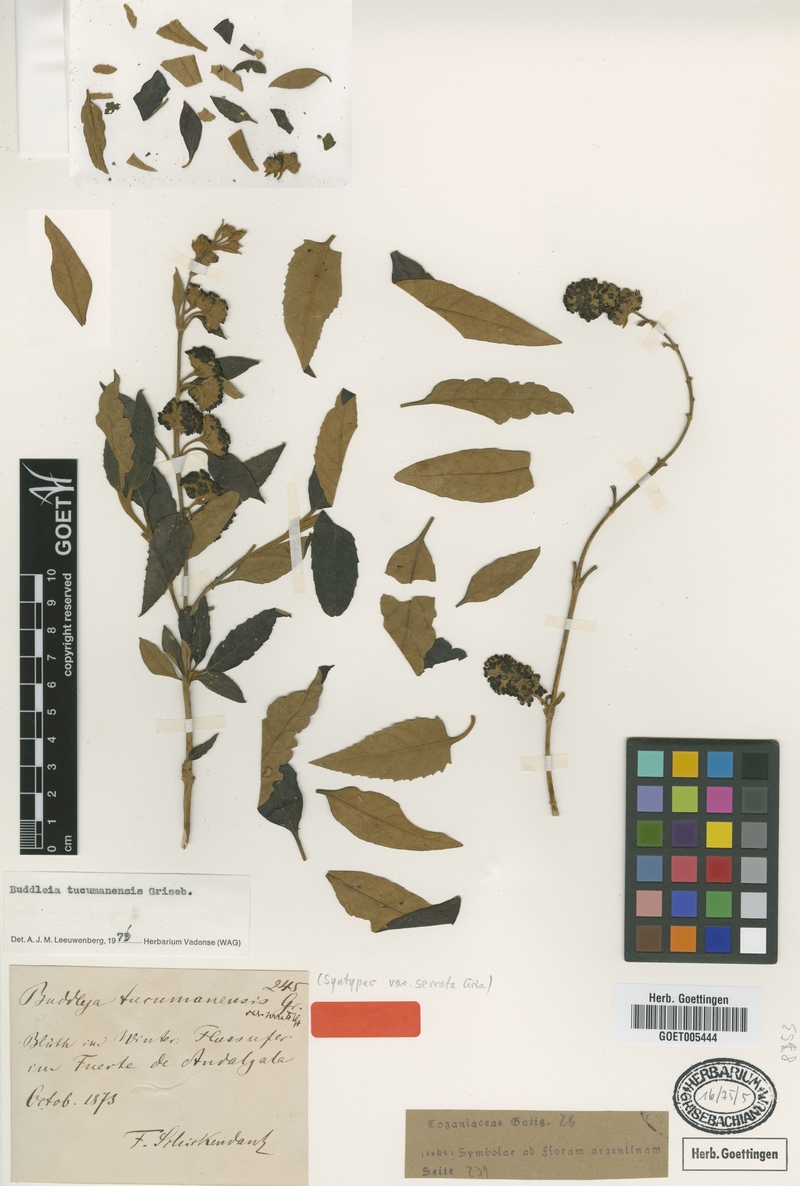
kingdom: Plantae
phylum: Tracheophyta
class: Magnoliopsida
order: Lamiales
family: Scrophulariaceae
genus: Buddleja
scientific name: Buddleja tucumanensis
